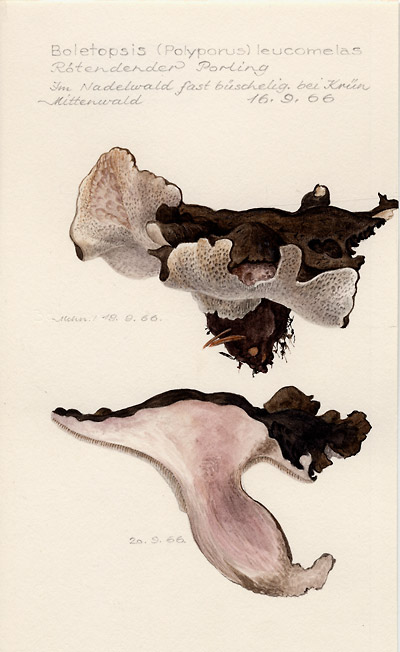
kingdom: Fungi
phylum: Basidiomycota
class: Agaricomycetes
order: Thelephorales
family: Bankeraceae
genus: Boletopsis
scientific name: Boletopsis leucomelaena
